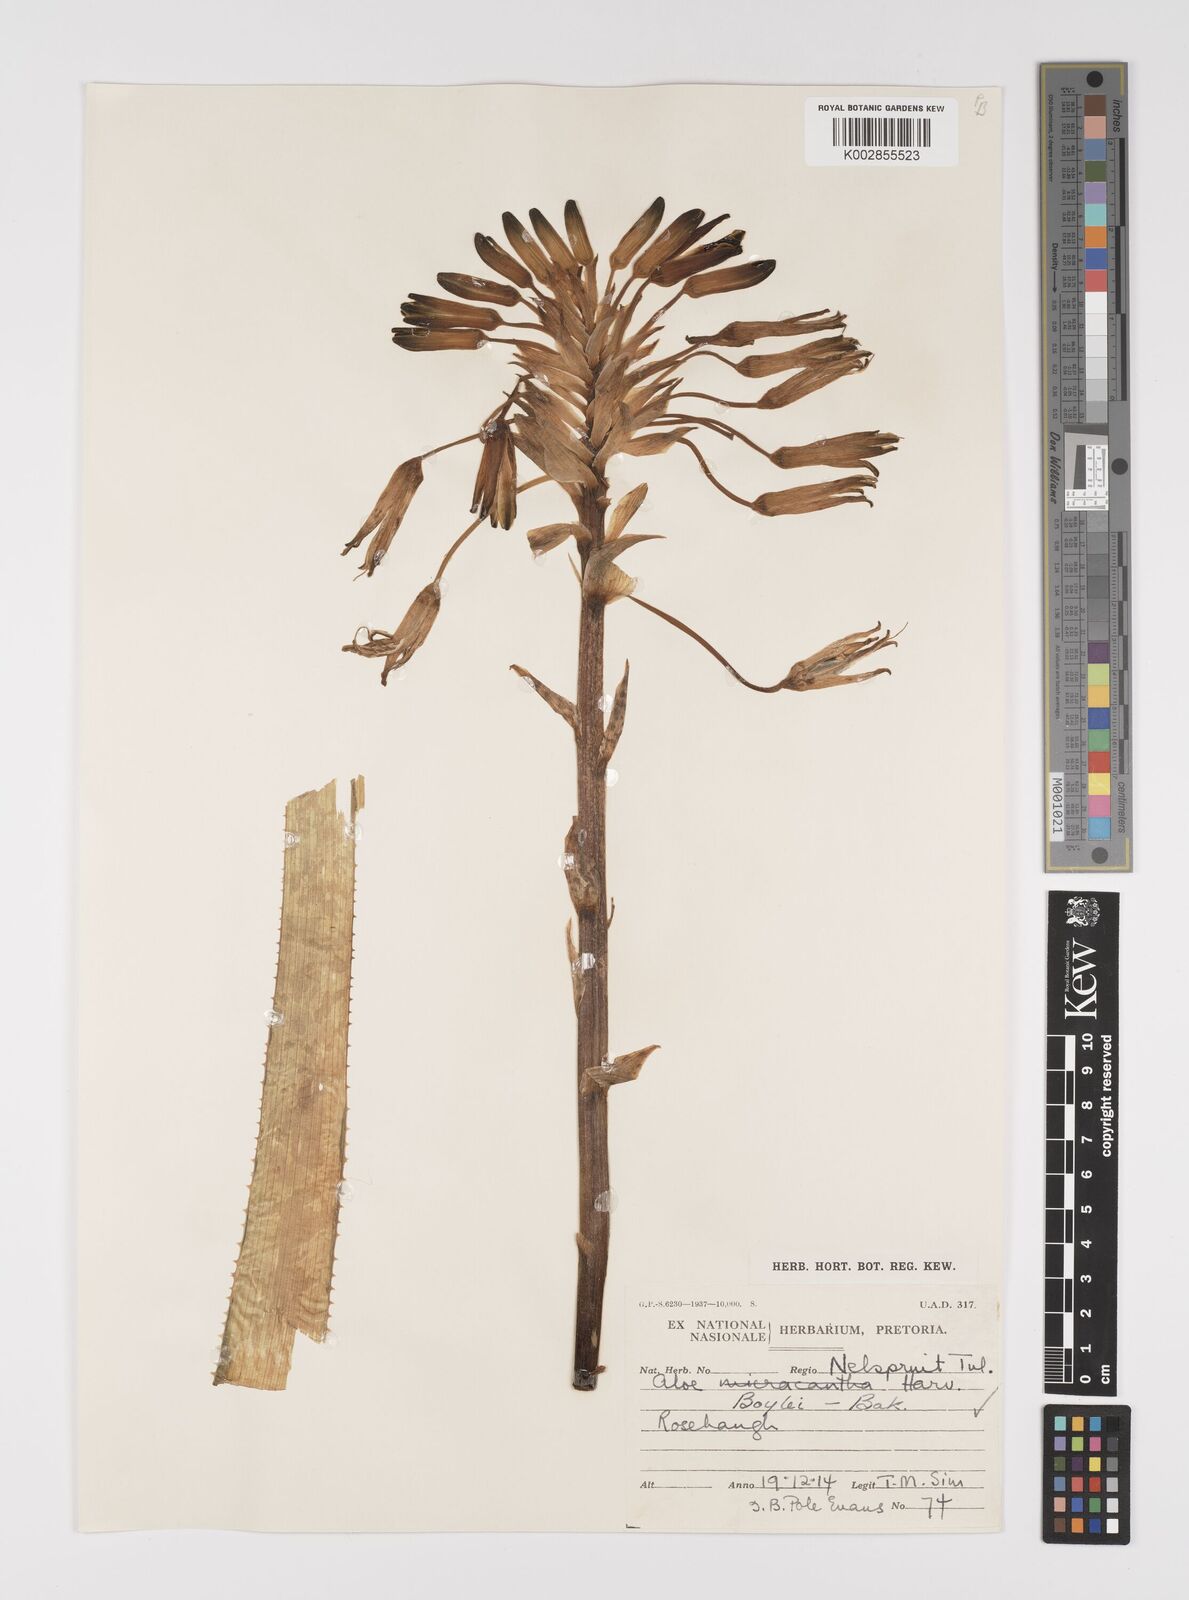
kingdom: Plantae
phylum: Tracheophyta
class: Liliopsida
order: Asparagales
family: Asphodelaceae
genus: Aloe
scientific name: Aloe boylei
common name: Broad-leaved grass aloe
